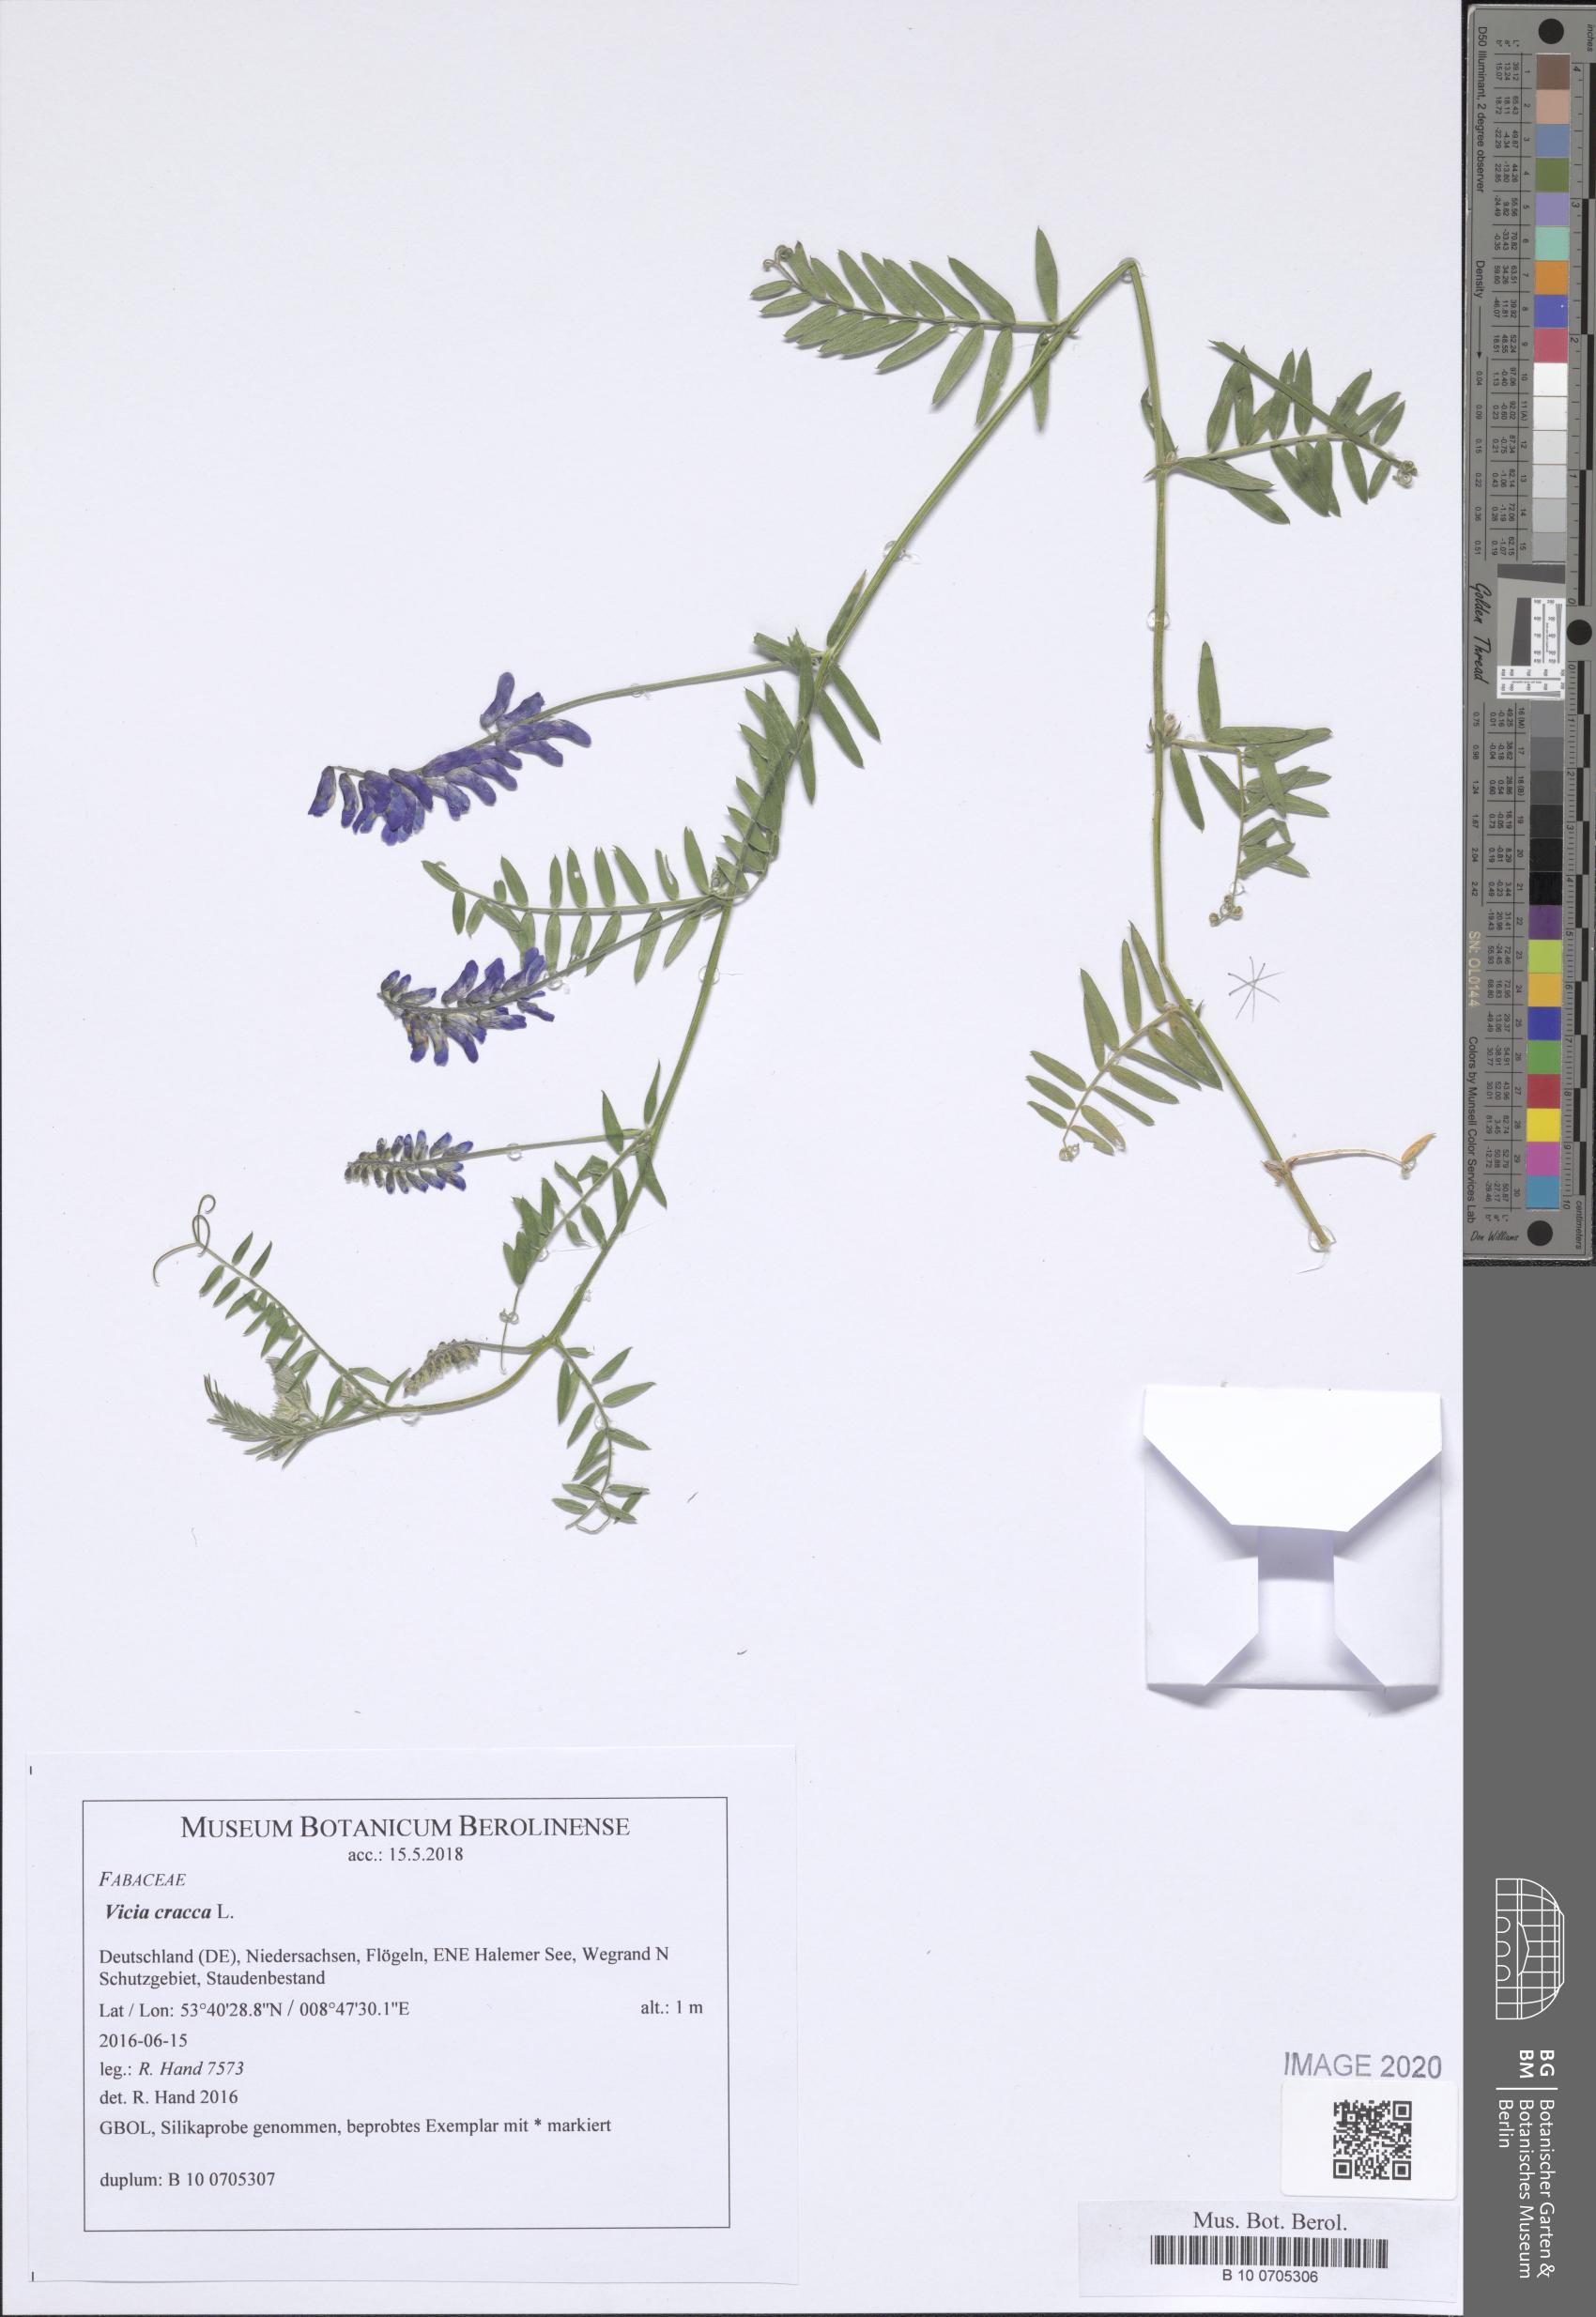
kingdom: Plantae
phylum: Tracheophyta
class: Magnoliopsida
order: Fabales
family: Fabaceae
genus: Vicia
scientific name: Vicia villosa
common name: Fodder vetch
